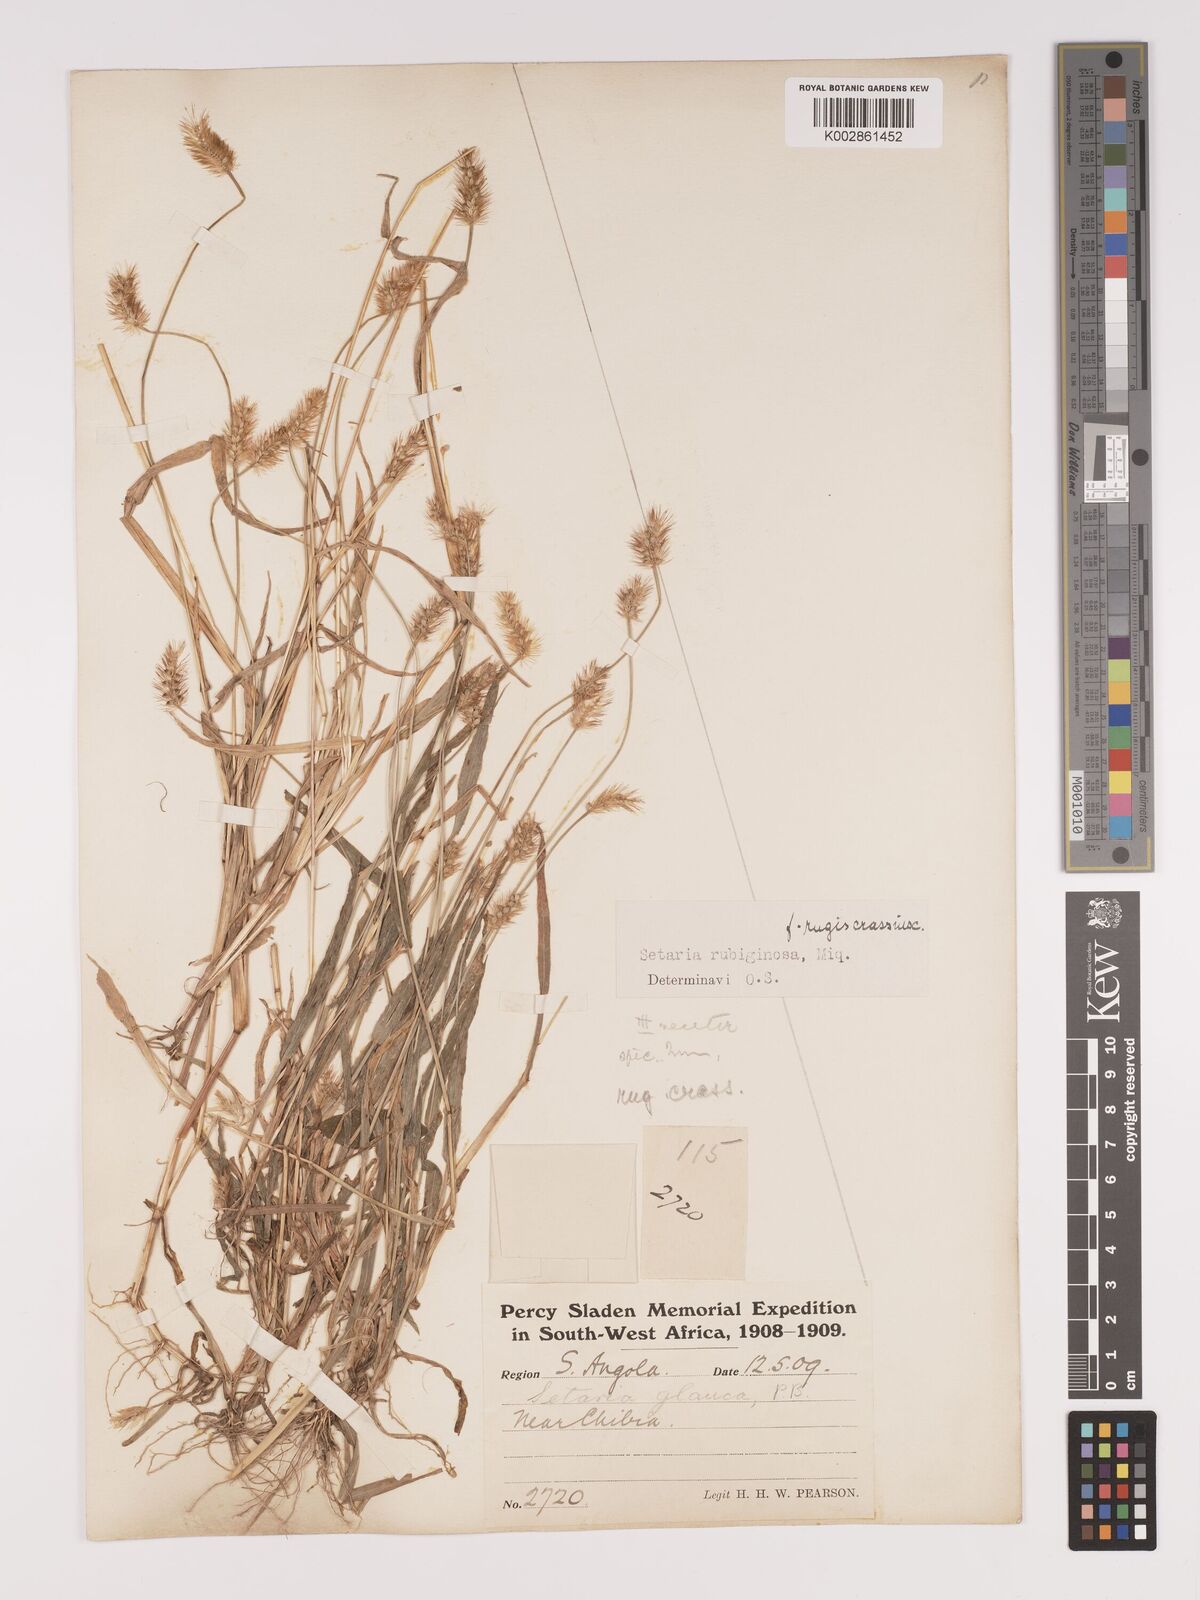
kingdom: Plantae
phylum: Tracheophyta
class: Liliopsida
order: Poales
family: Poaceae
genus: Setaria
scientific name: Setaria pumila
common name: Yellow bristle-grass
